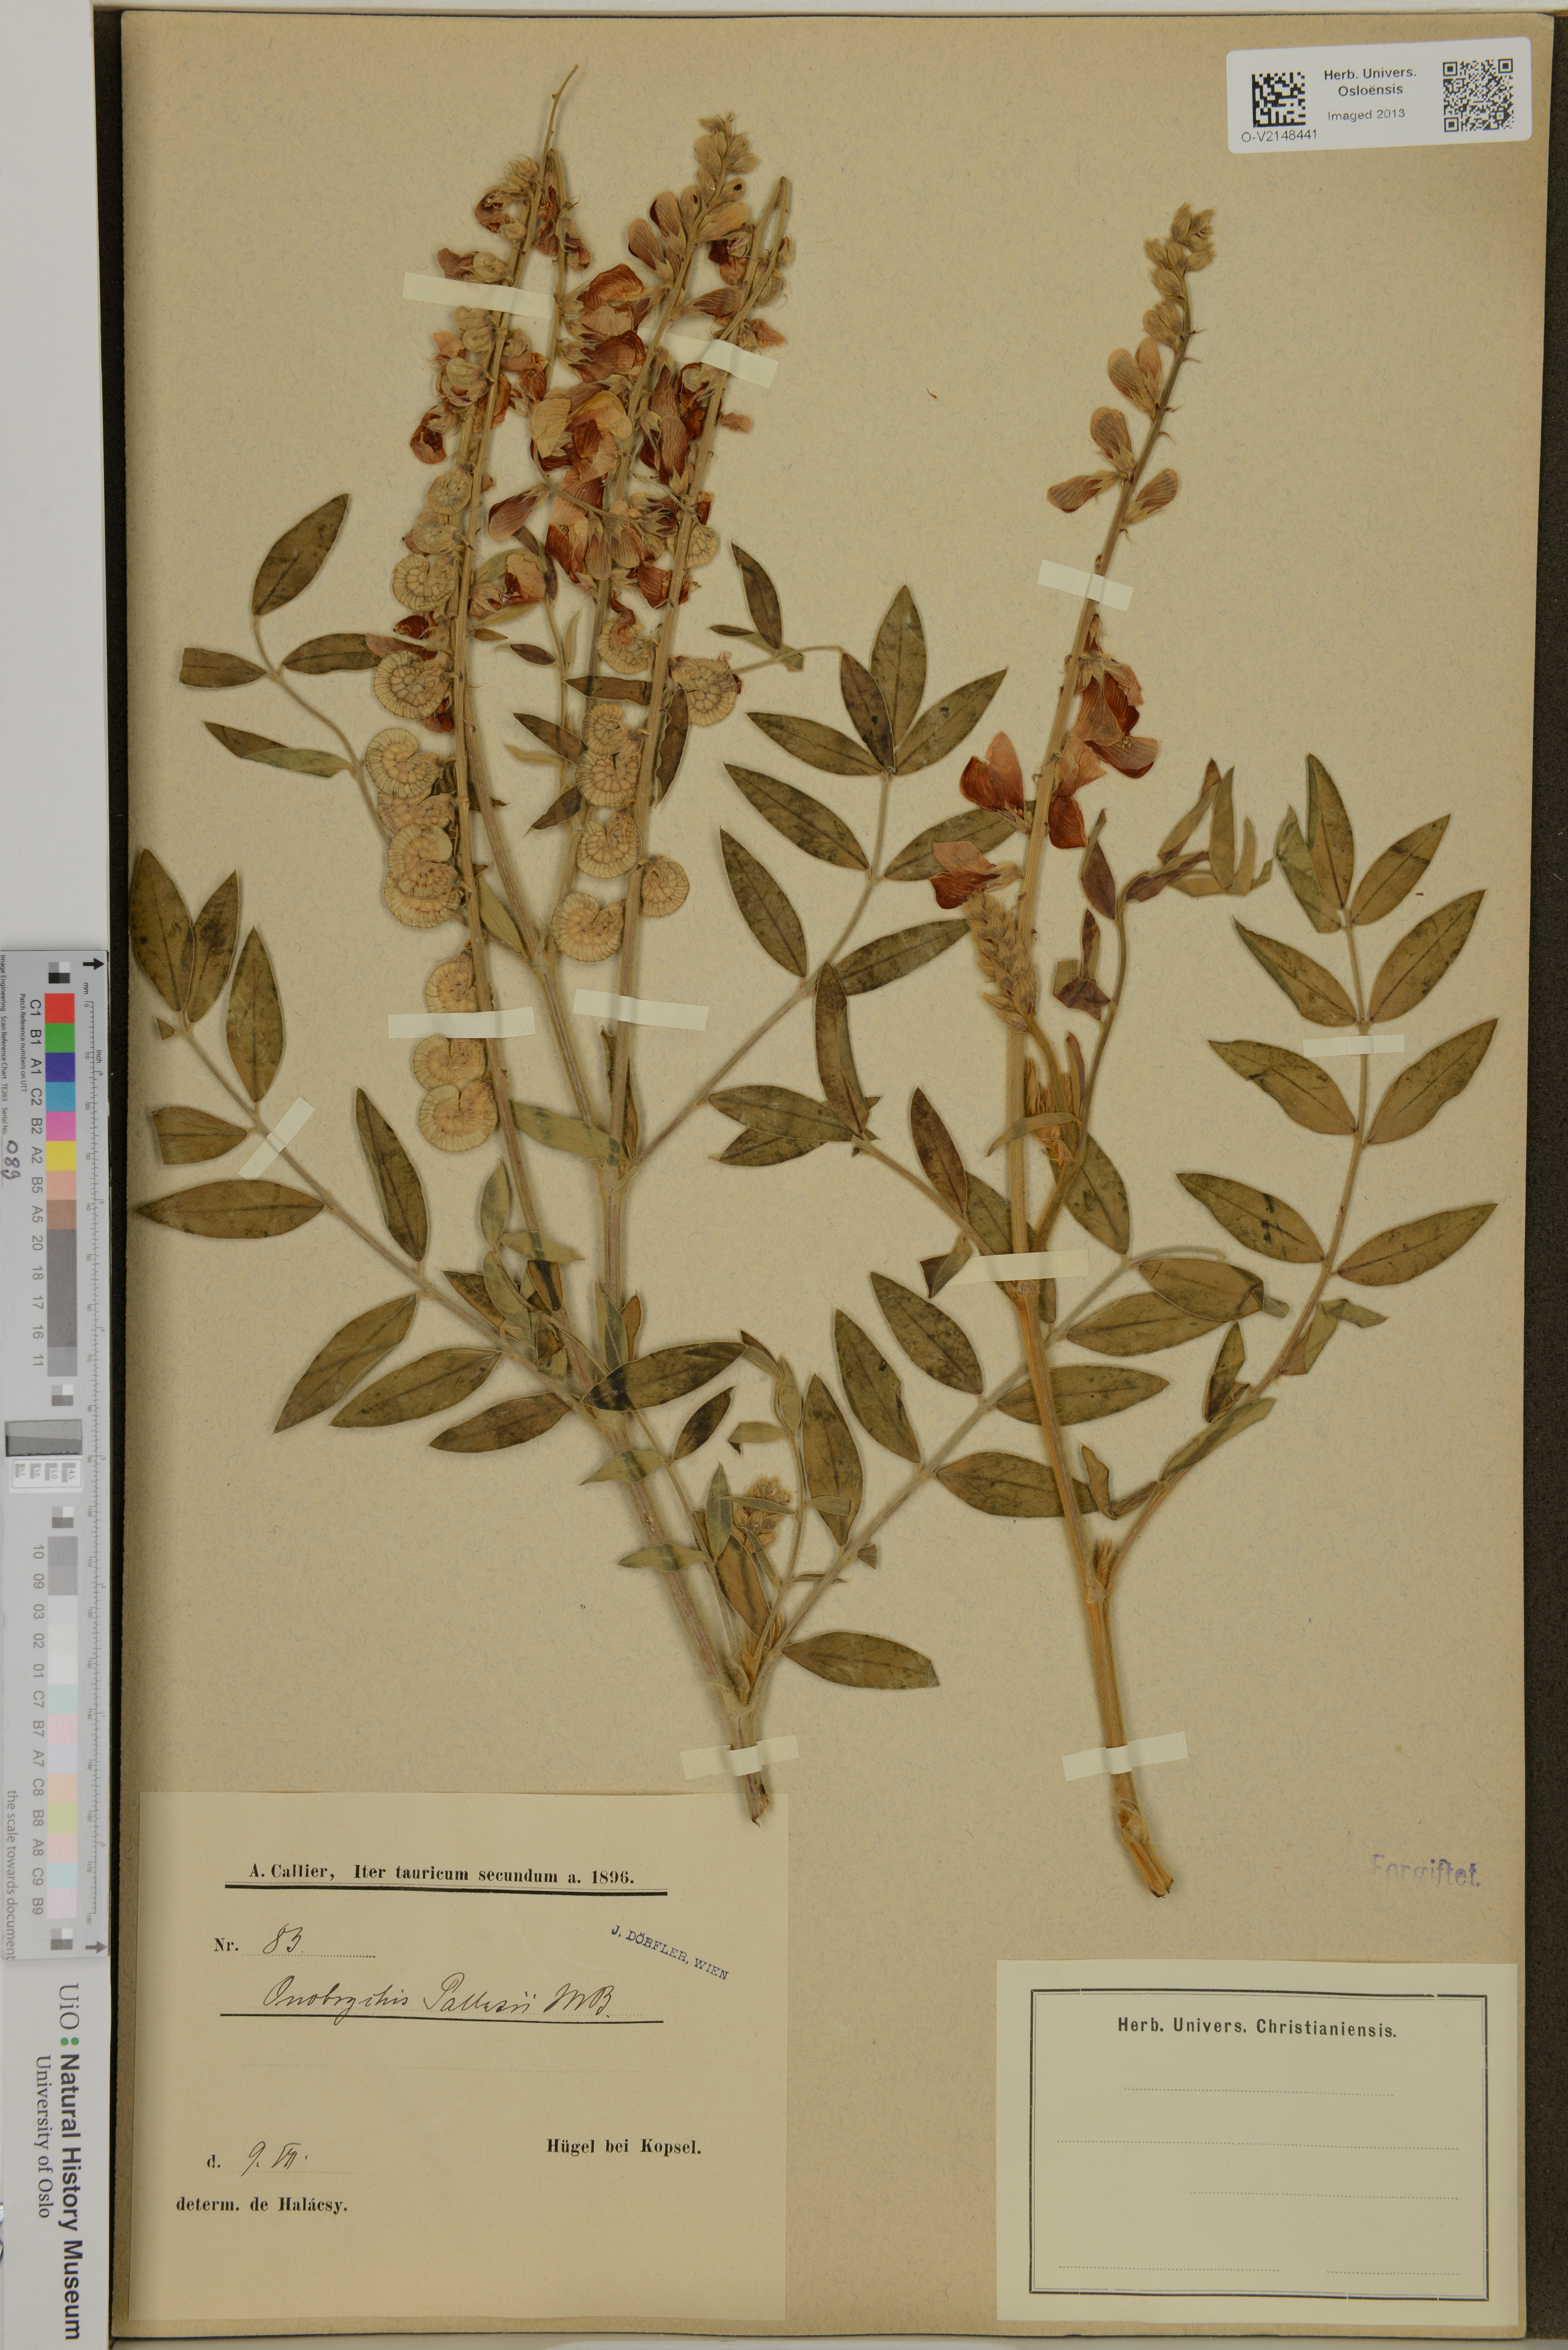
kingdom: Plantae
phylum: Tracheophyta
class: Magnoliopsida
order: Fabales
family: Fabaceae
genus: Onobrychis
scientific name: Onobrychis pallasii
